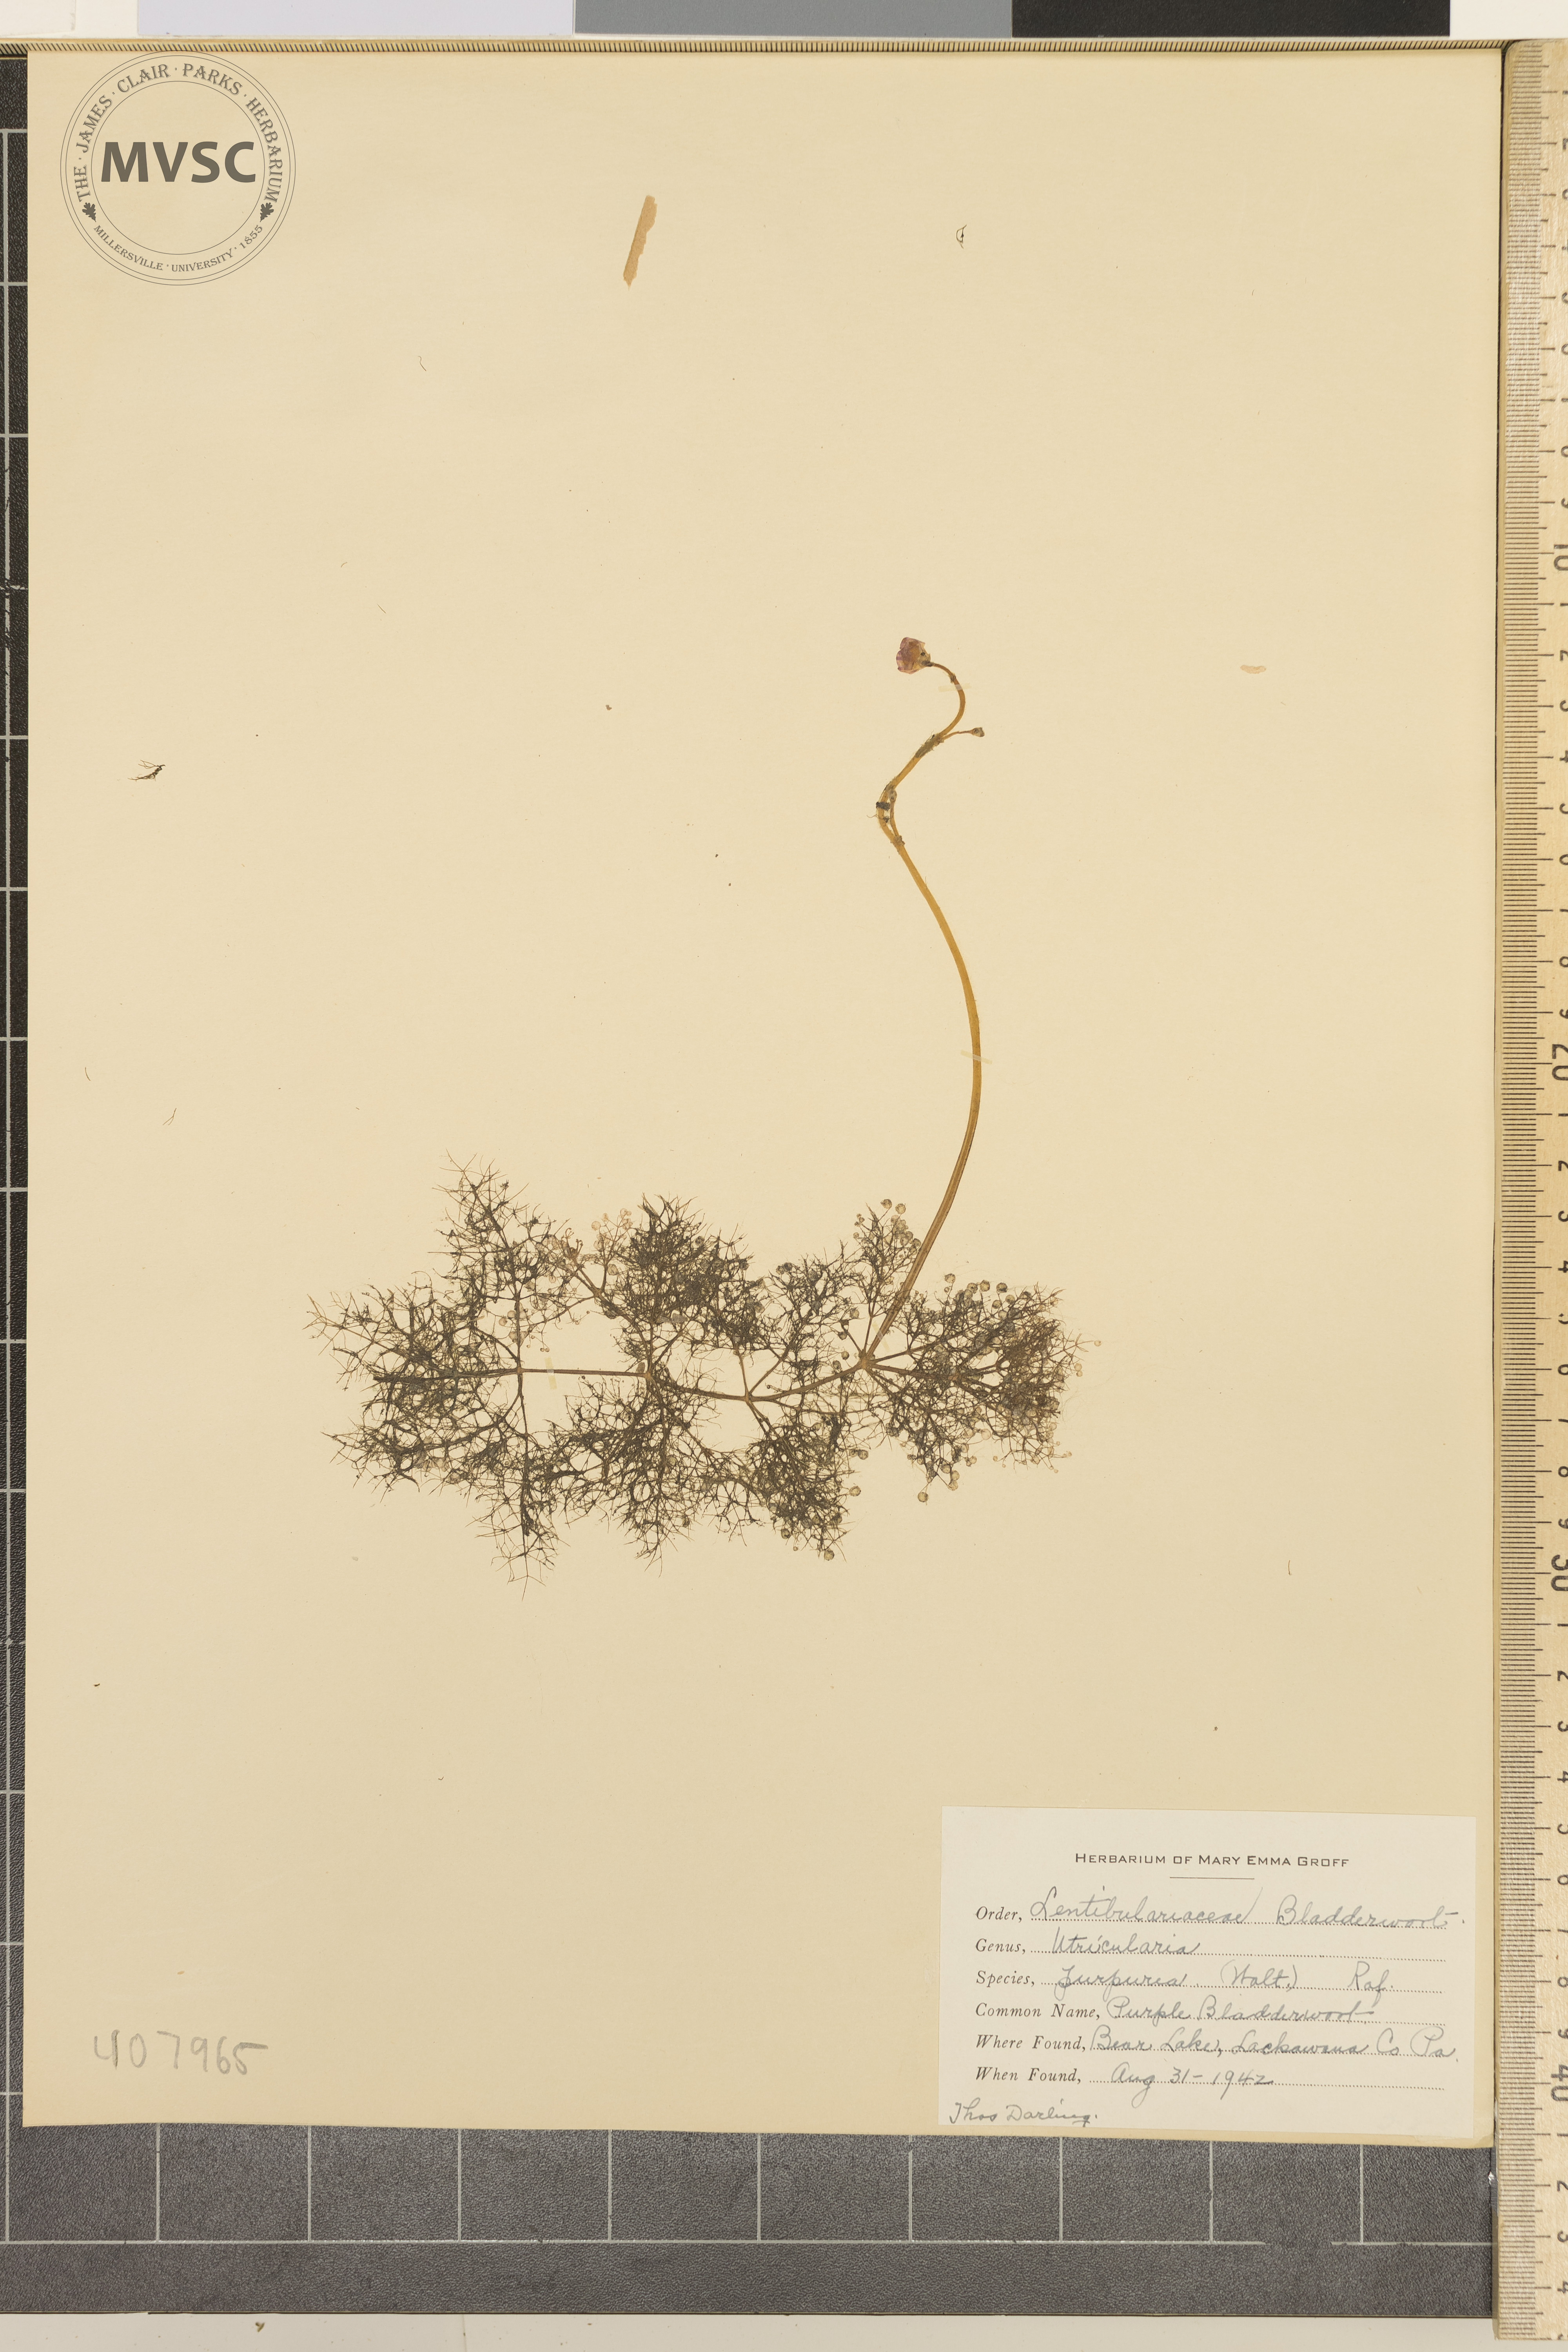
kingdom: Plantae
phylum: Tracheophyta
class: Magnoliopsida
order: Lamiales
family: Lentibulariaceae
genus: Utricularia
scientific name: Utricularia purpurea
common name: Purple Bladderwort
